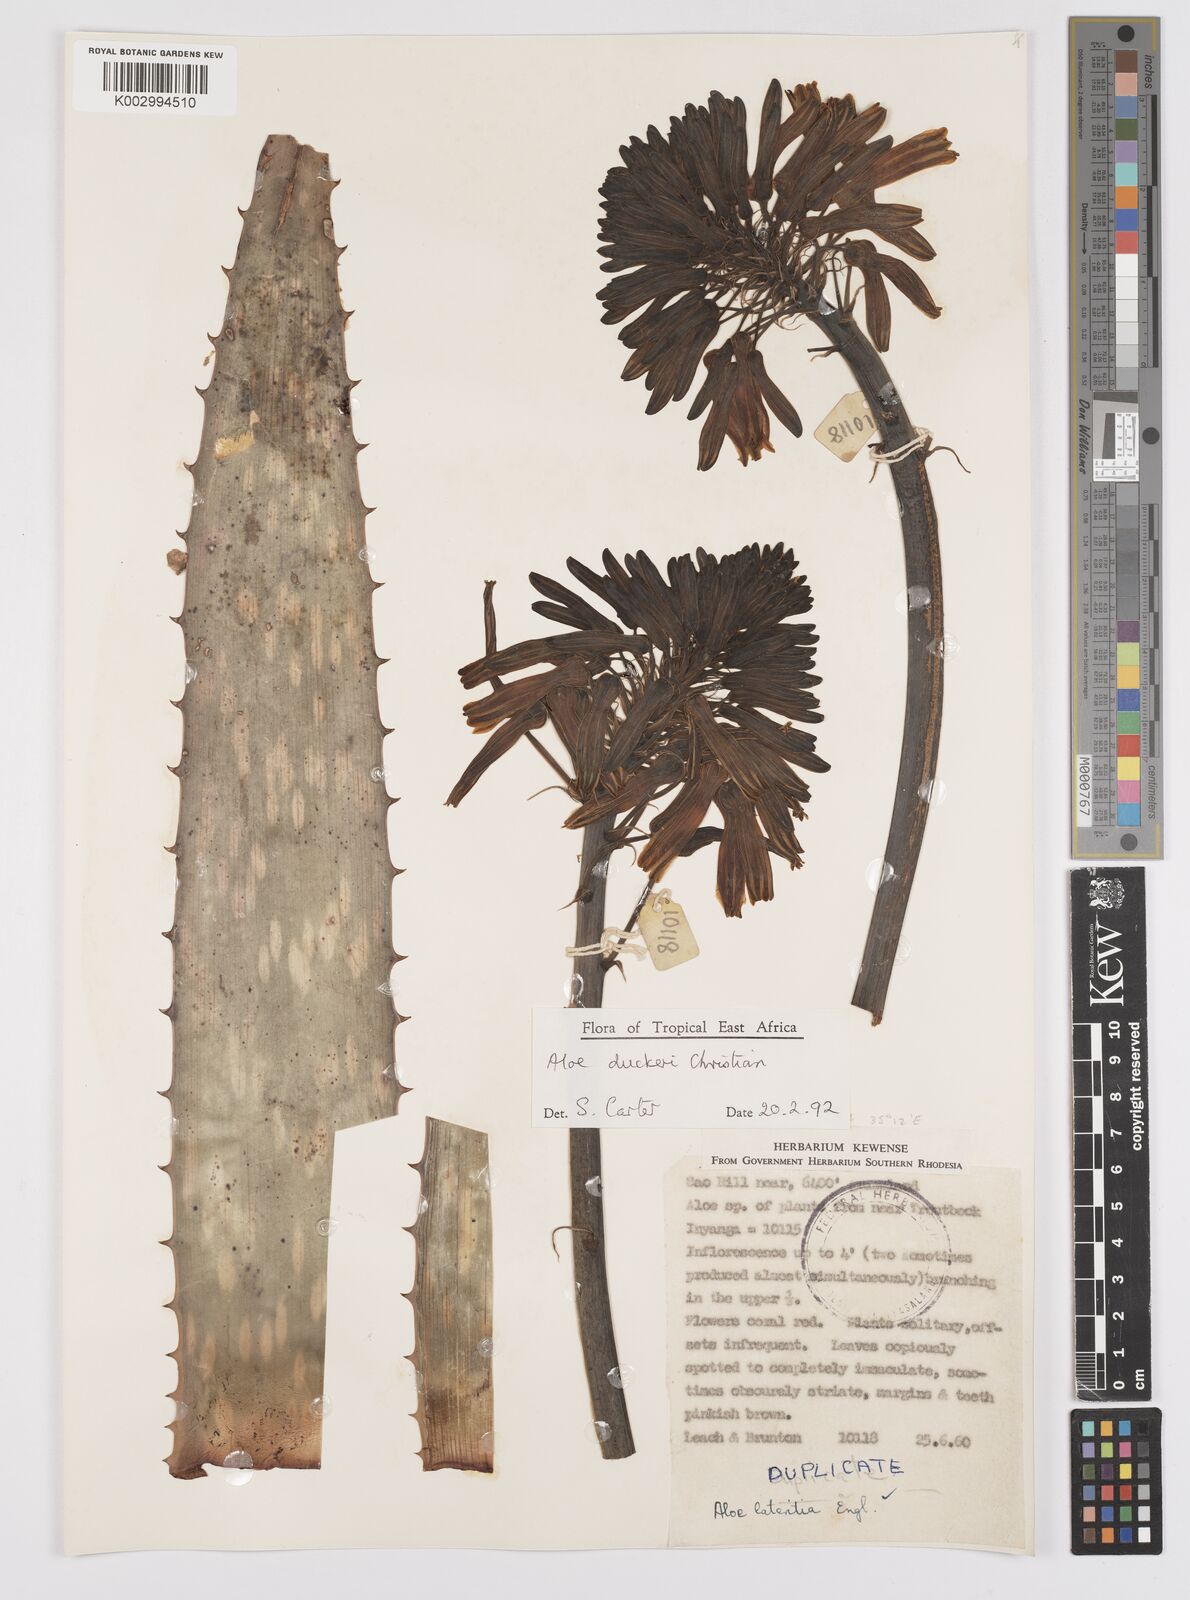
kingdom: Plantae
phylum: Tracheophyta
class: Liliopsida
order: Asparagales
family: Asphodelaceae
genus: Aloe
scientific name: Aloe duckeri
